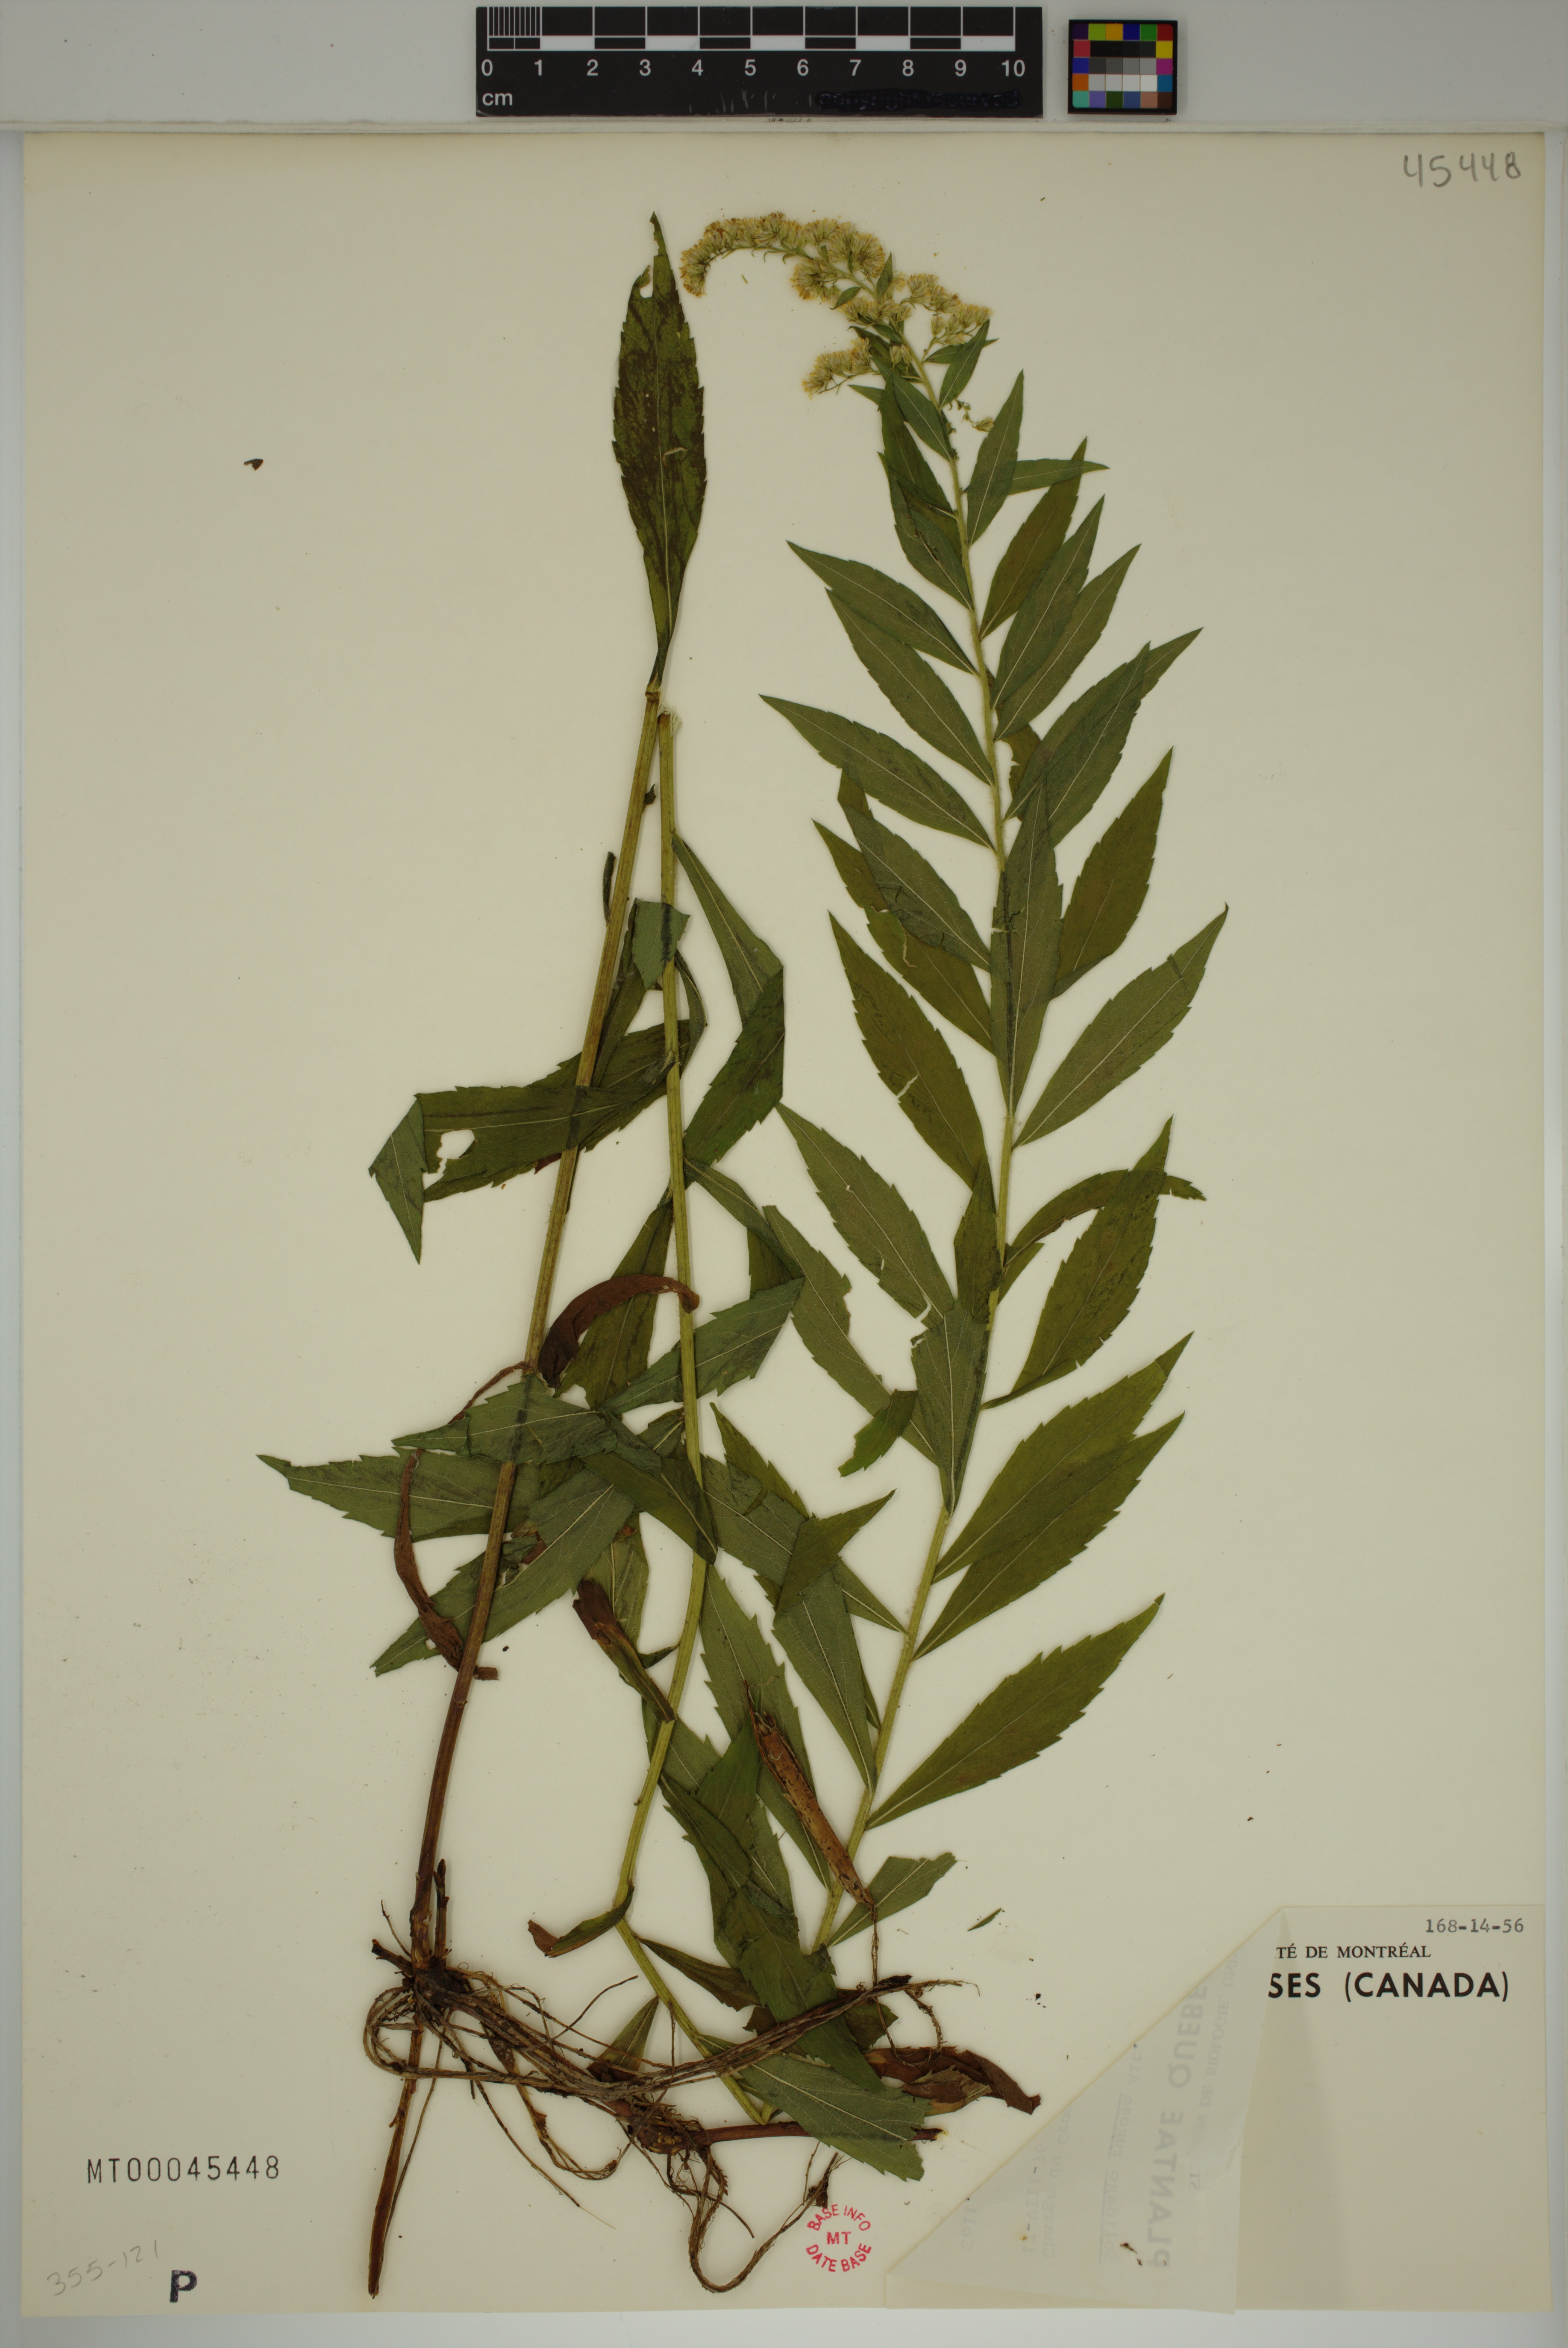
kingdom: Plantae
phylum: Tracheophyta
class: Magnoliopsida
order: Asterales
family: Asteraceae
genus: Solidago
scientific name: Solidago rugosa
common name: Rough-stemmed goldenrod
